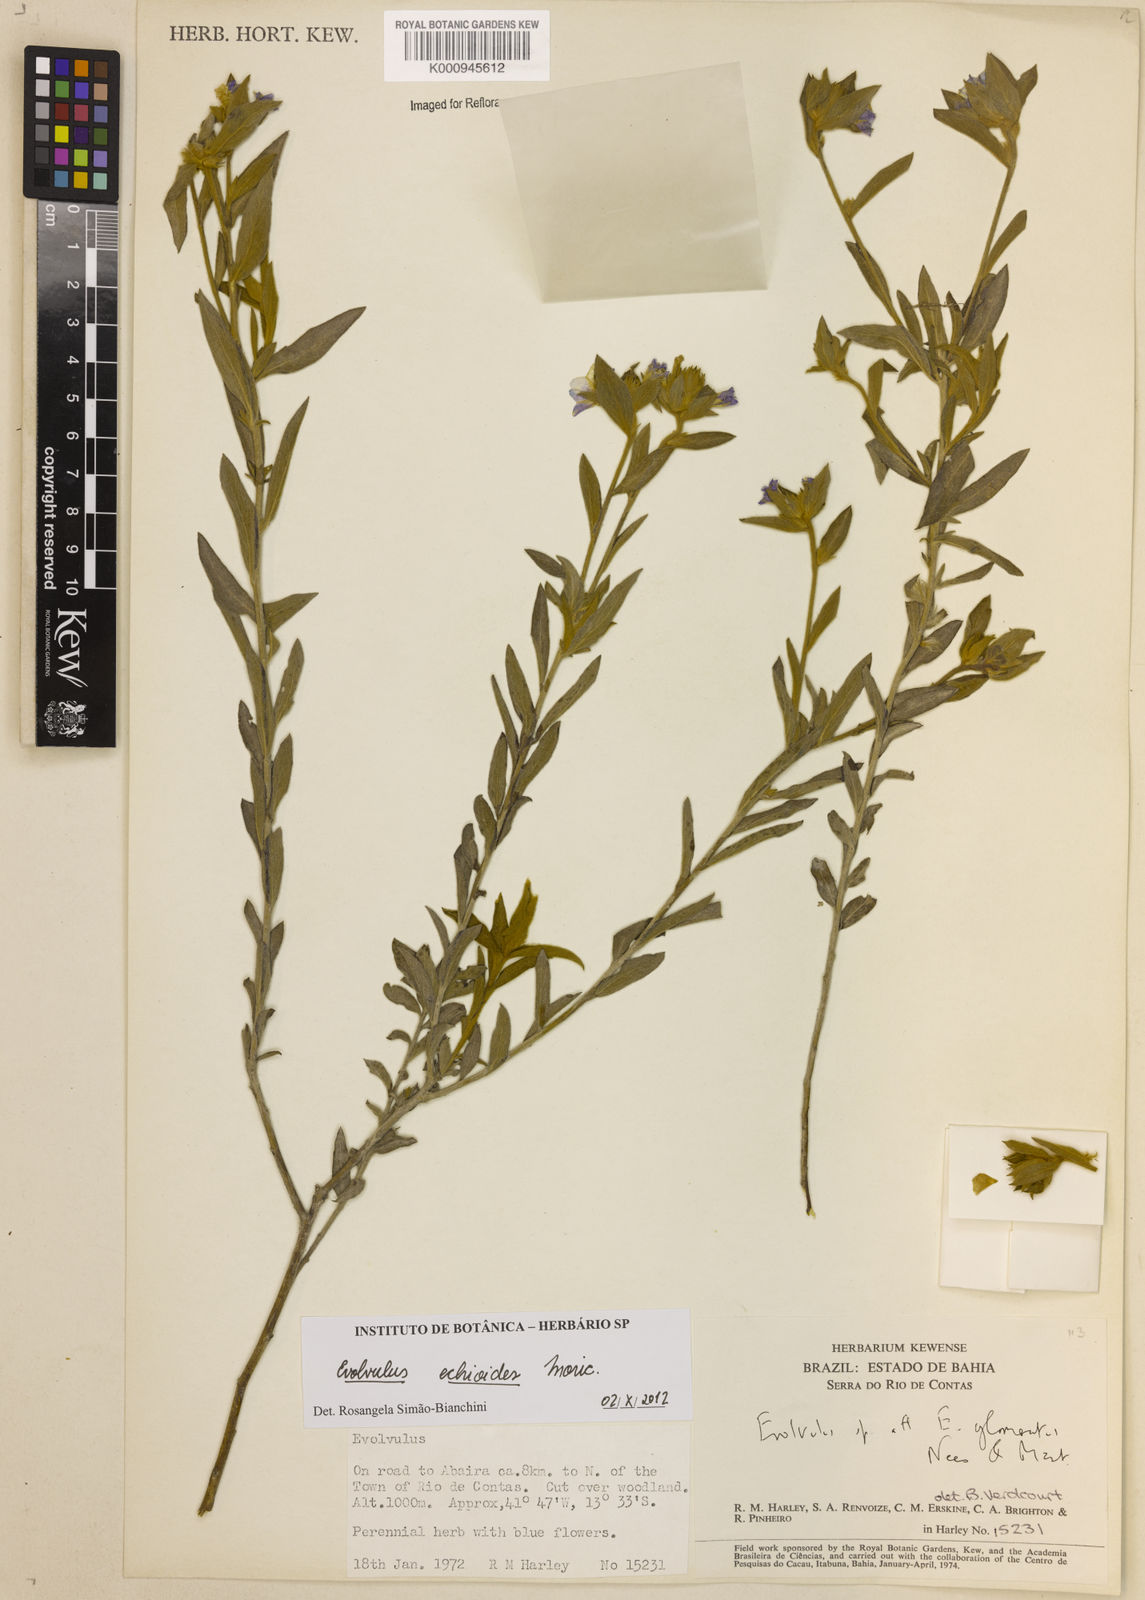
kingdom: Plantae
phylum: Tracheophyta
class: Magnoliopsida
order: Solanales
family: Convolvulaceae
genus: Evolvulus
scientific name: Evolvulus echioides
